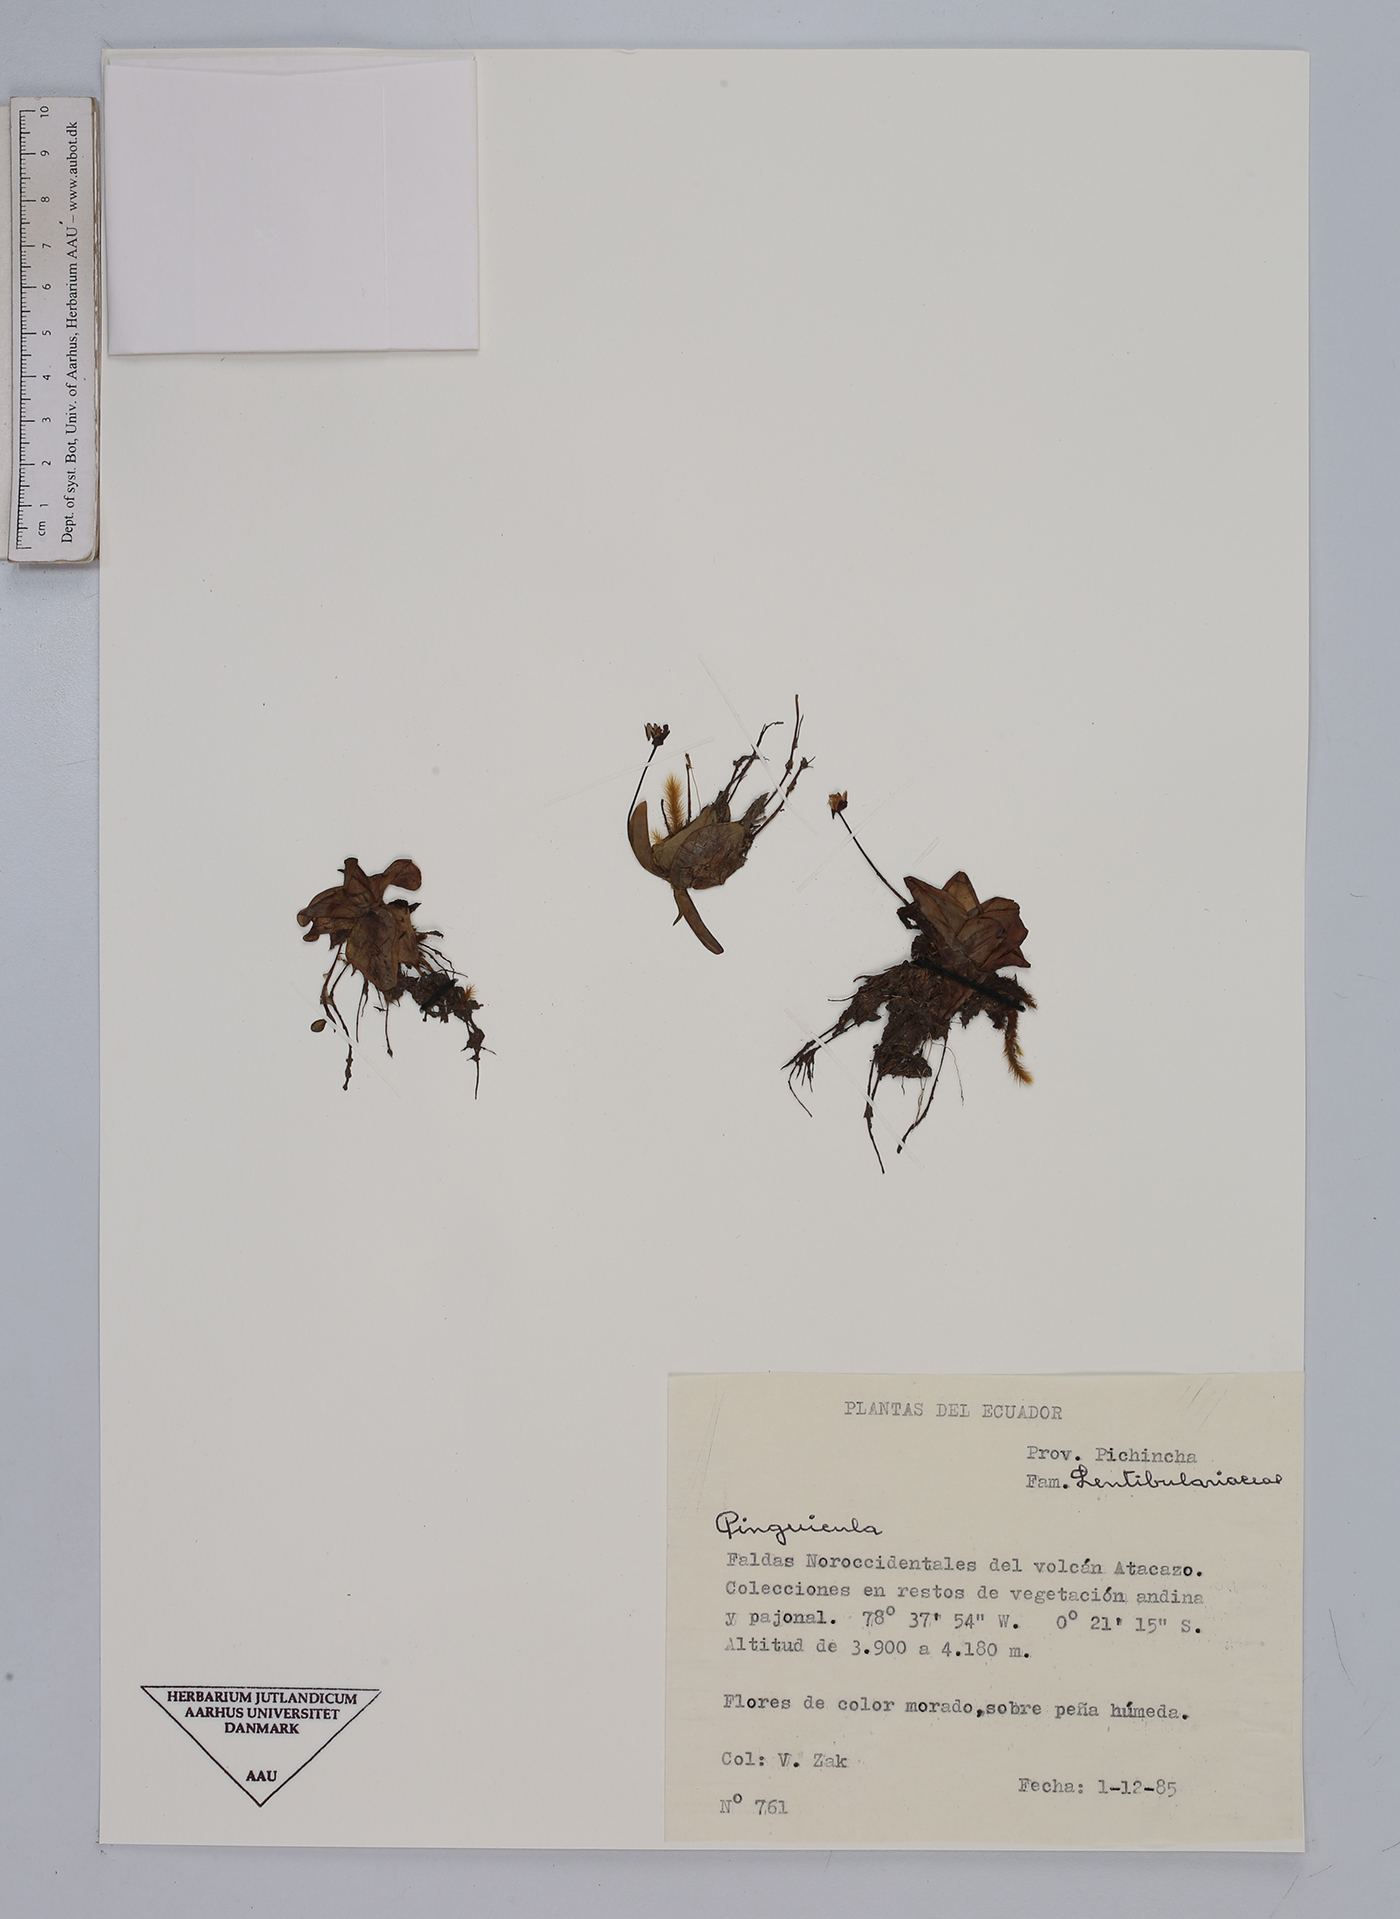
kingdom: Plantae
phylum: Tracheophyta
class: Magnoliopsida
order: Lamiales
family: Lentibulariaceae
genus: Pinguicula
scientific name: Pinguicula
